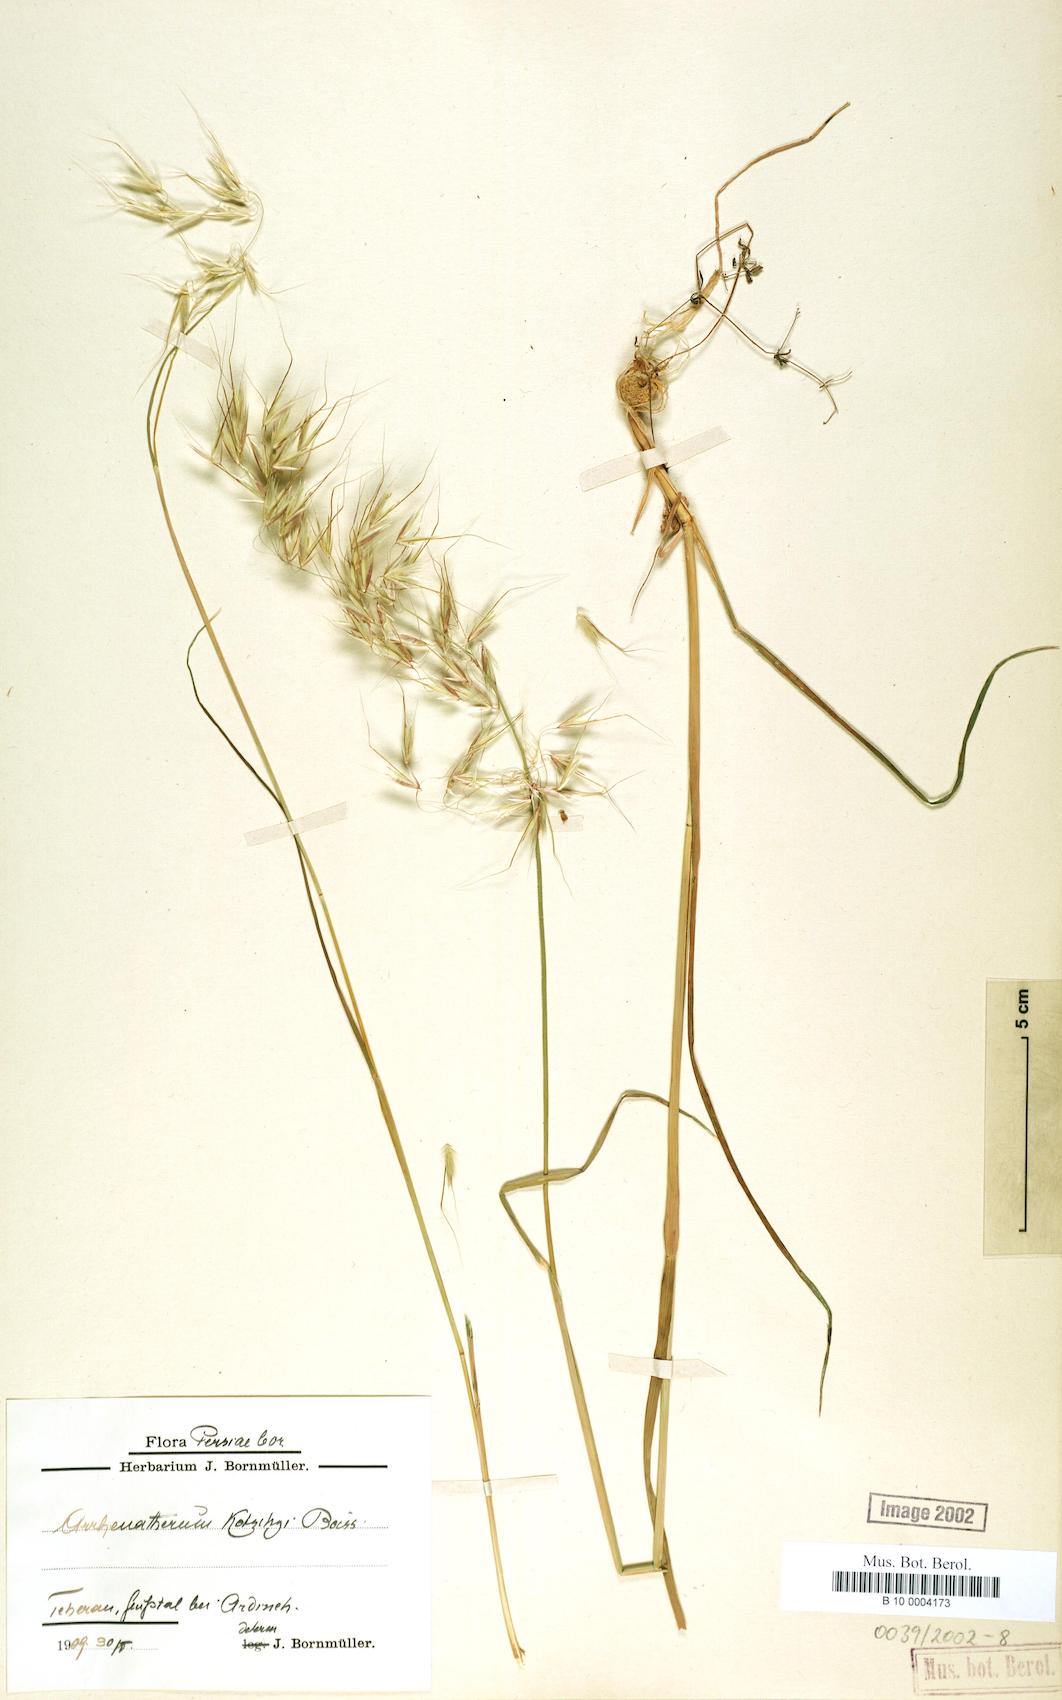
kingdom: Plantae
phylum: Tracheophyta
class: Liliopsida
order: Poales
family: Poaceae
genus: Arrhenatherum
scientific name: Arrhenatherum kotschyi
